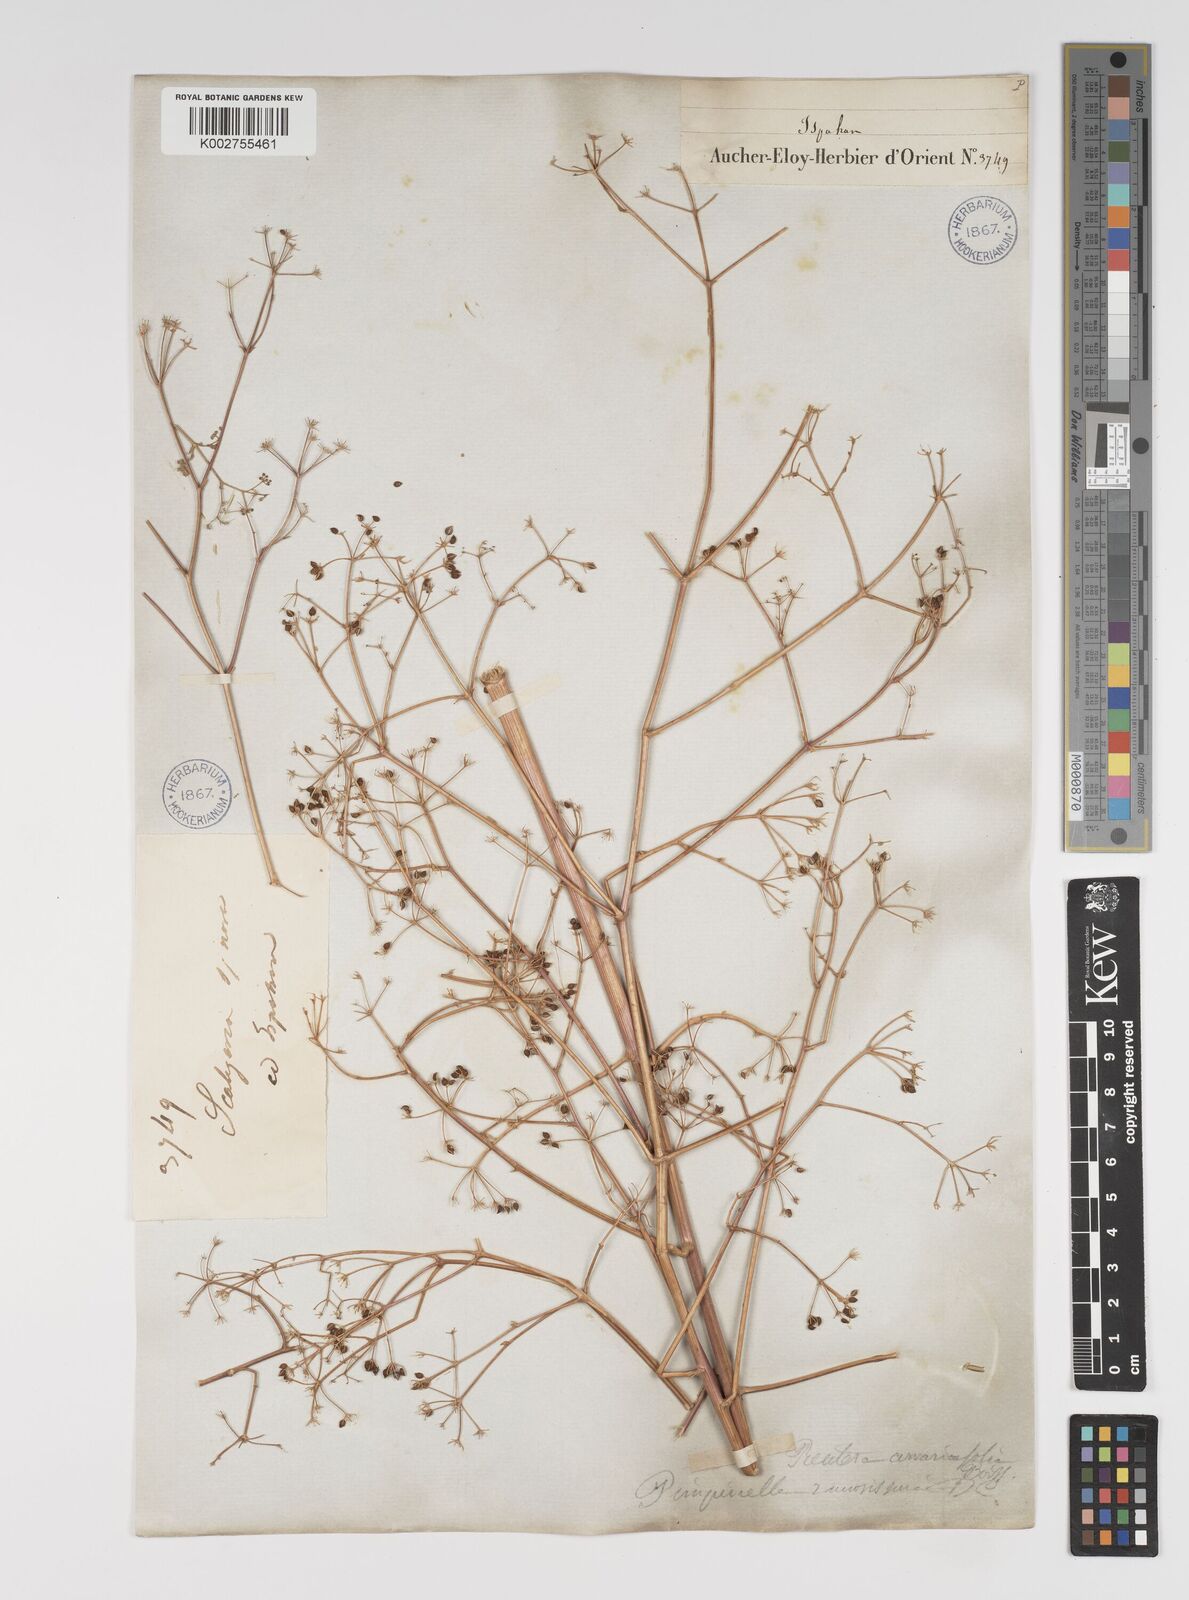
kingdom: Plantae
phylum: Tracheophyta
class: Magnoliopsida
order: Apiales
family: Apiaceae
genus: Pimpinella
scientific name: Pimpinella aurea
